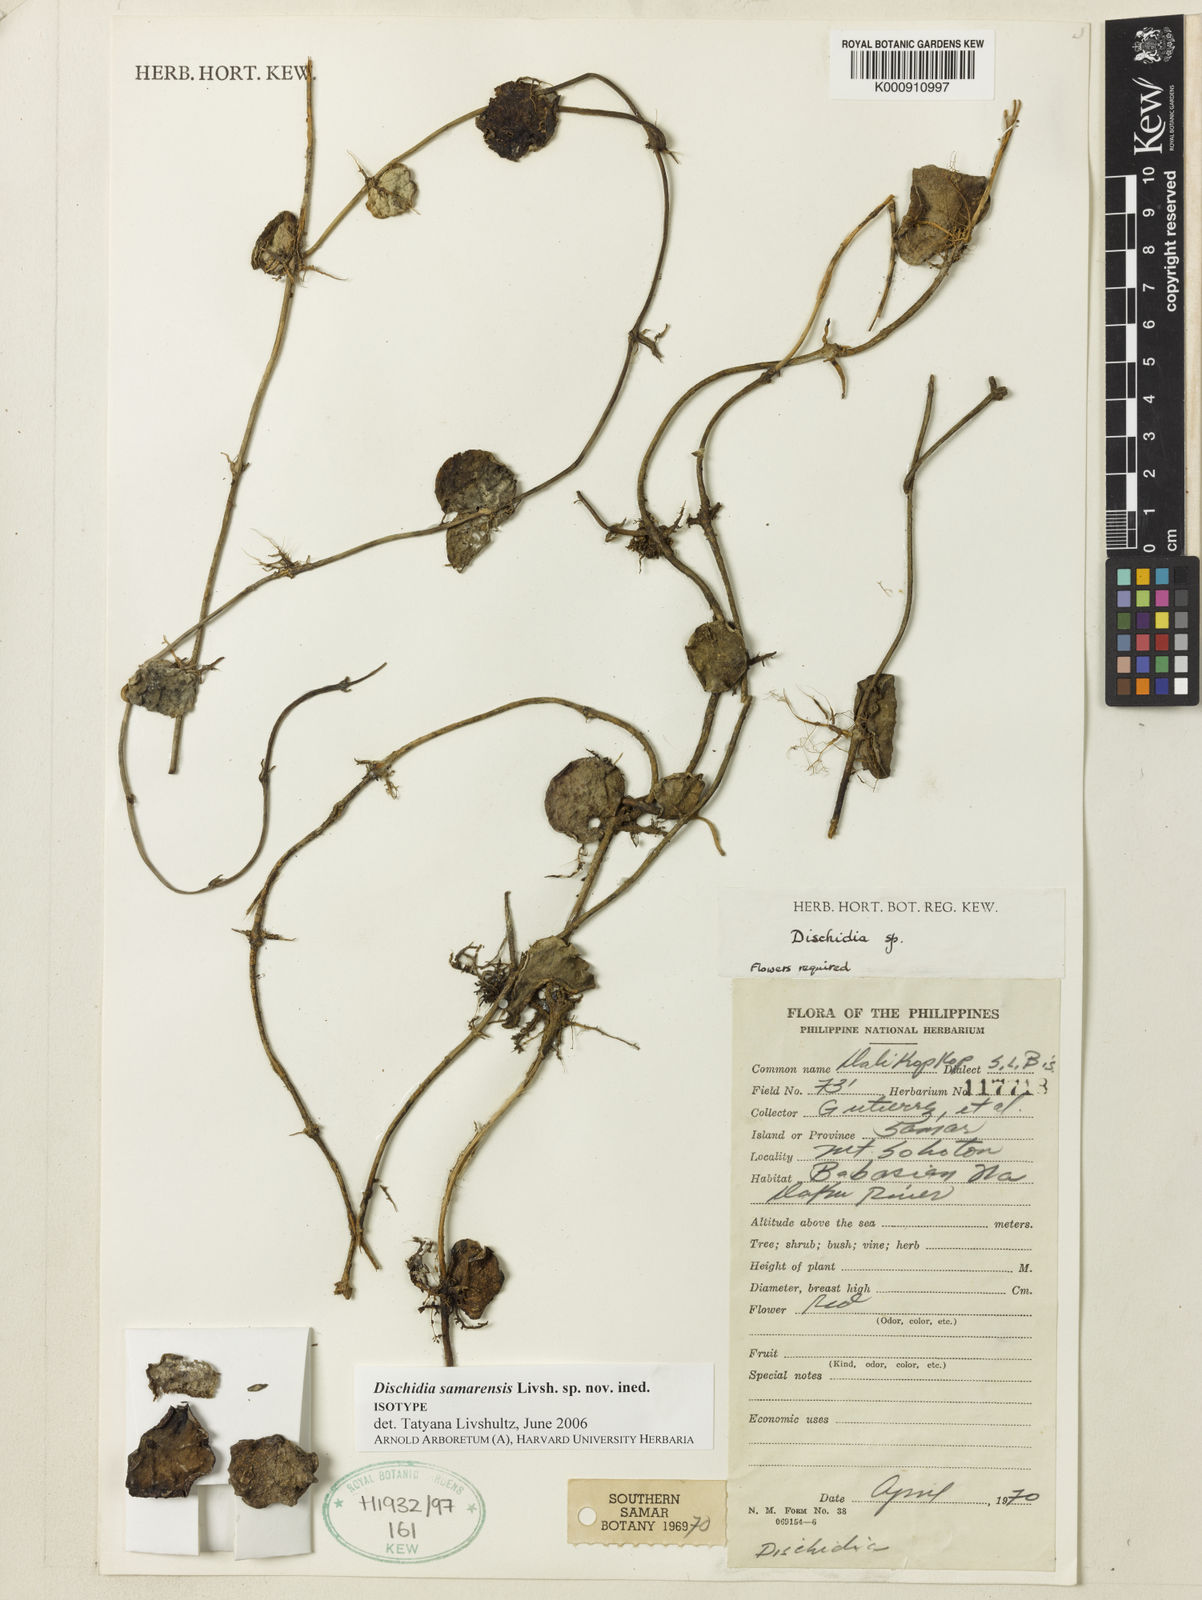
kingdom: Plantae
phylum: Tracheophyta
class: Magnoliopsida
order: Gentianales
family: Apocynaceae
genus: Dischidia
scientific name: Dischidia
